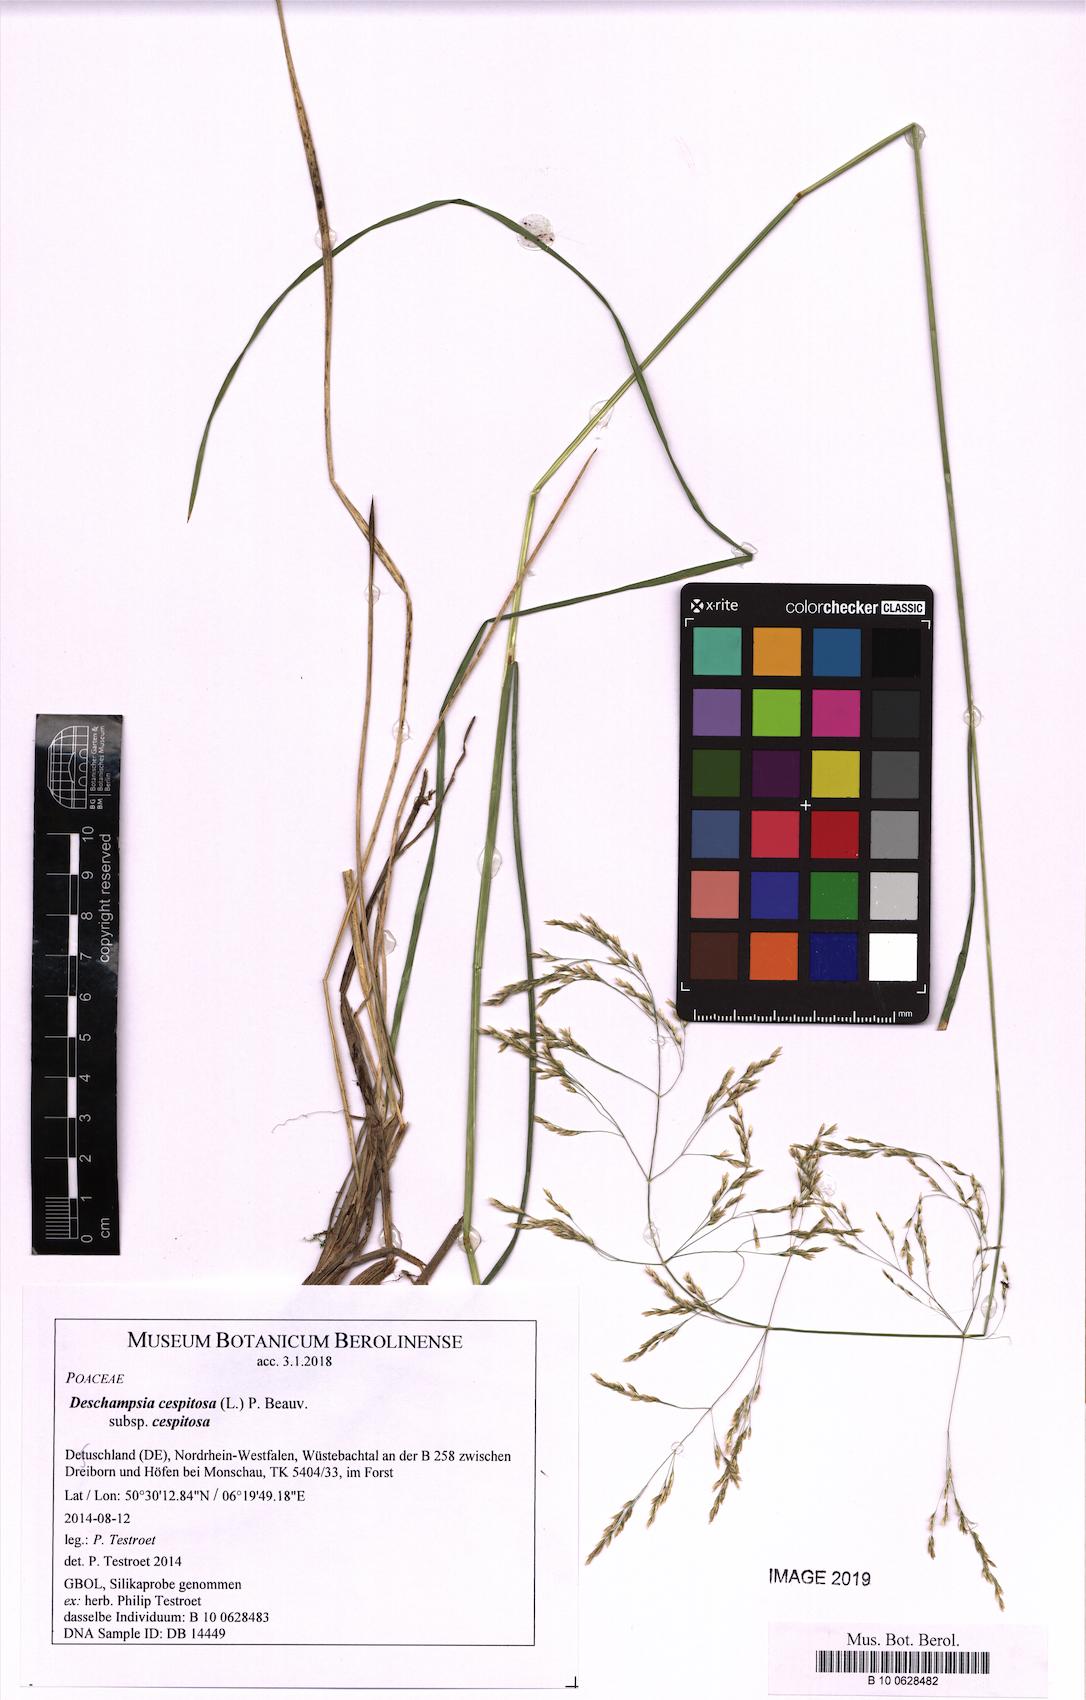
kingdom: Plantae
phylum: Tracheophyta
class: Liliopsida
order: Poales
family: Poaceae
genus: Deschampsia
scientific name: Deschampsia cespitosa
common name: Tufted hair-grass
